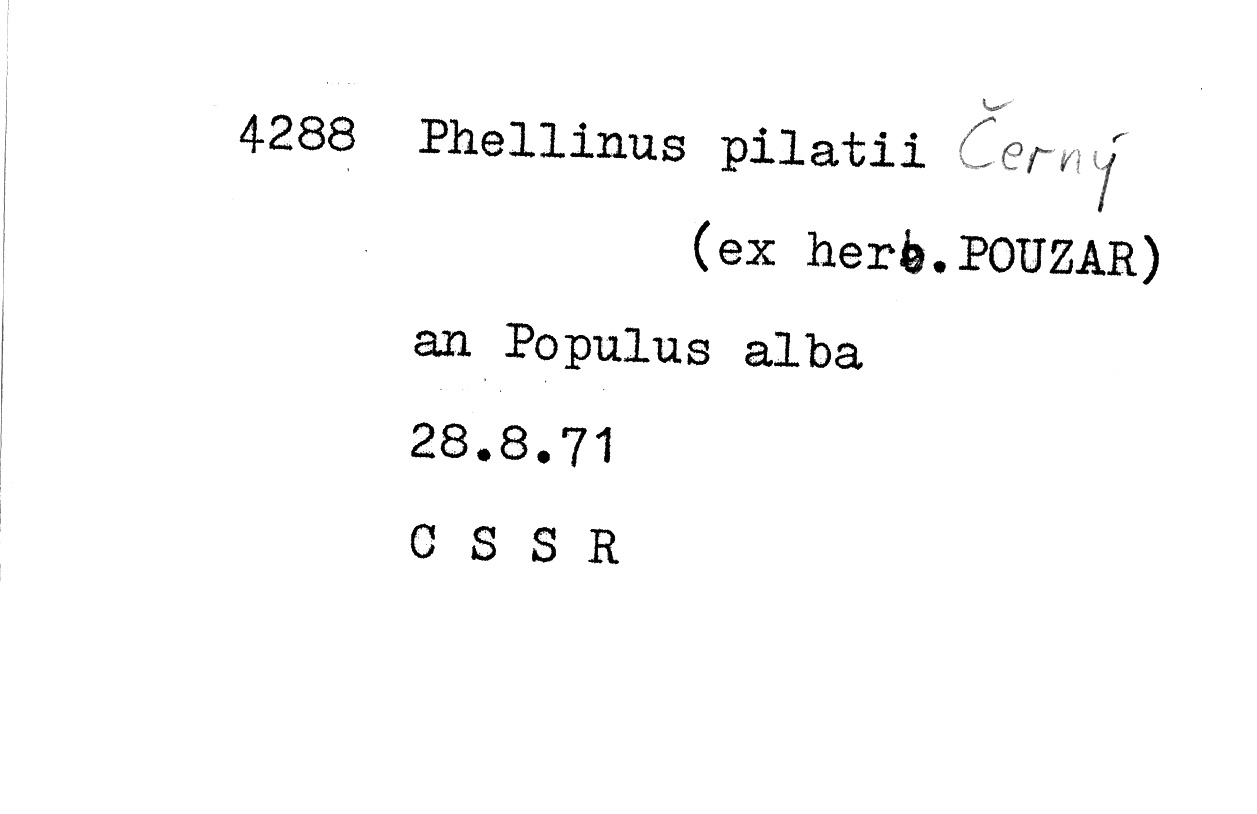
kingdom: Plantae
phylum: Tracheophyta
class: Magnoliopsida
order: Malpighiales
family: Salicaceae
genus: Populus
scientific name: Populus alba
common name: White poplar
